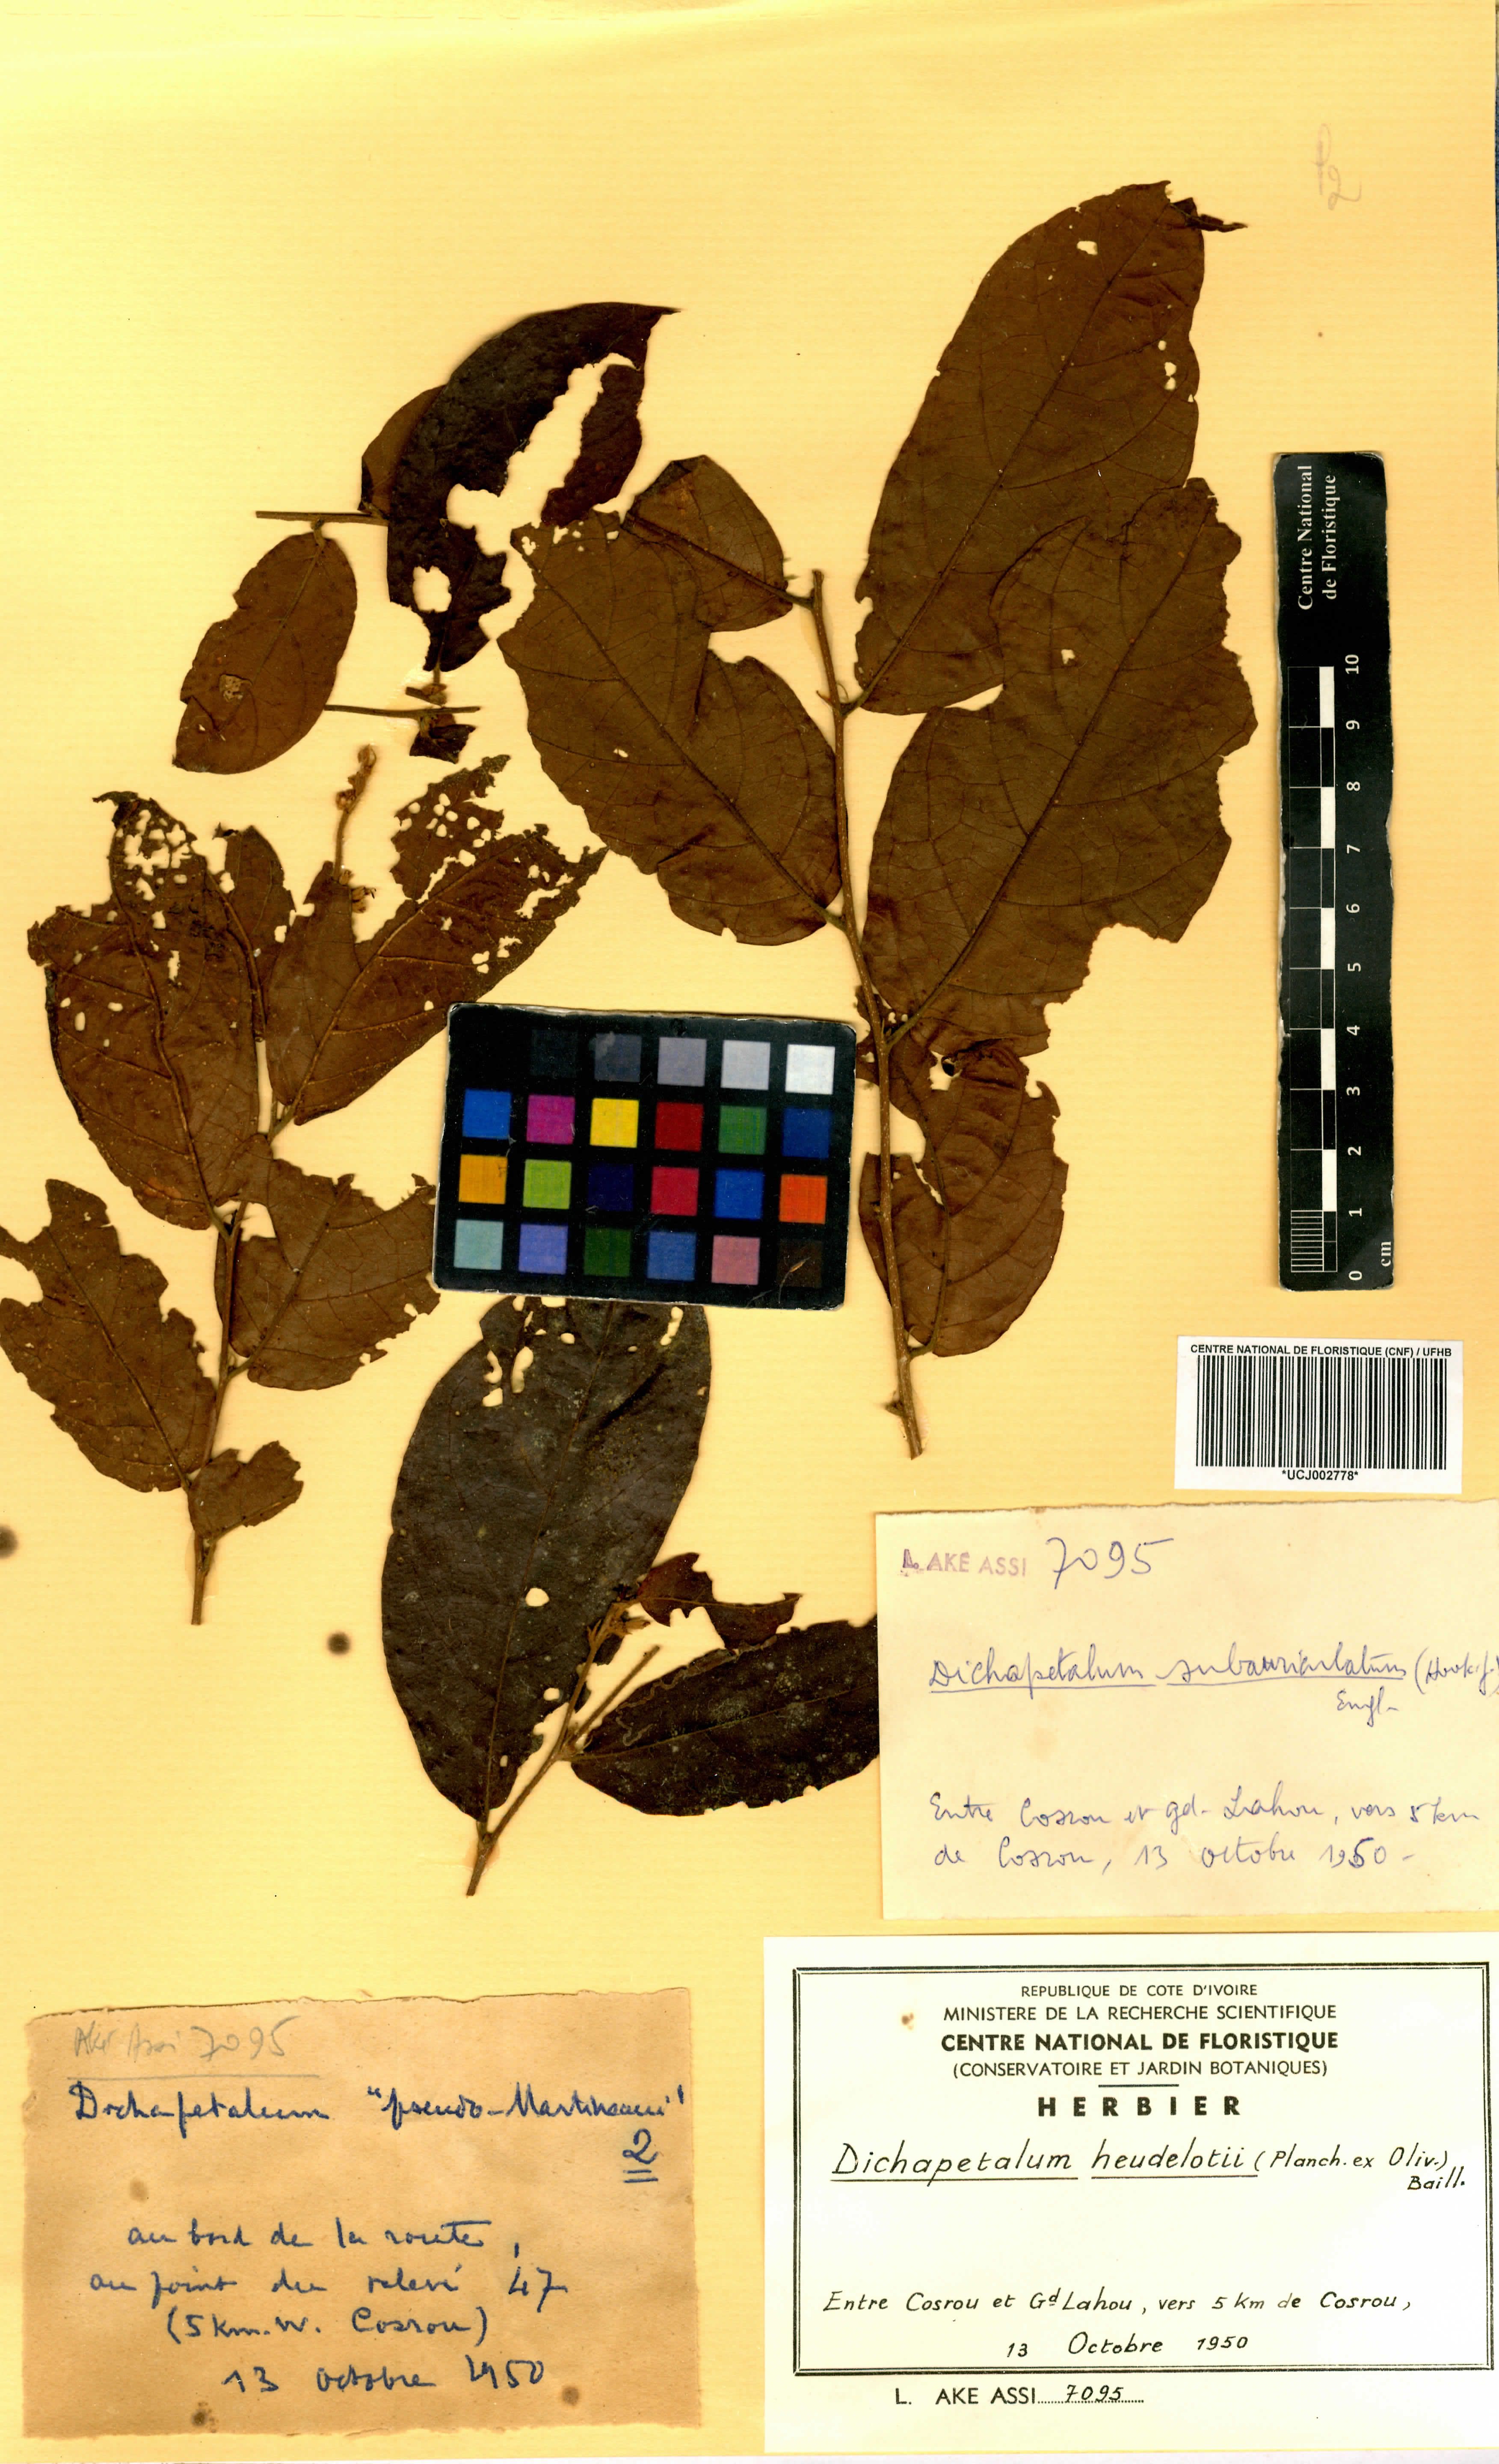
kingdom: Plantae
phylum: Tracheophyta
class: Magnoliopsida
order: Malpighiales
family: Dichapetalaceae
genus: Dichapetalum
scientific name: Dichapetalum heudelotii
